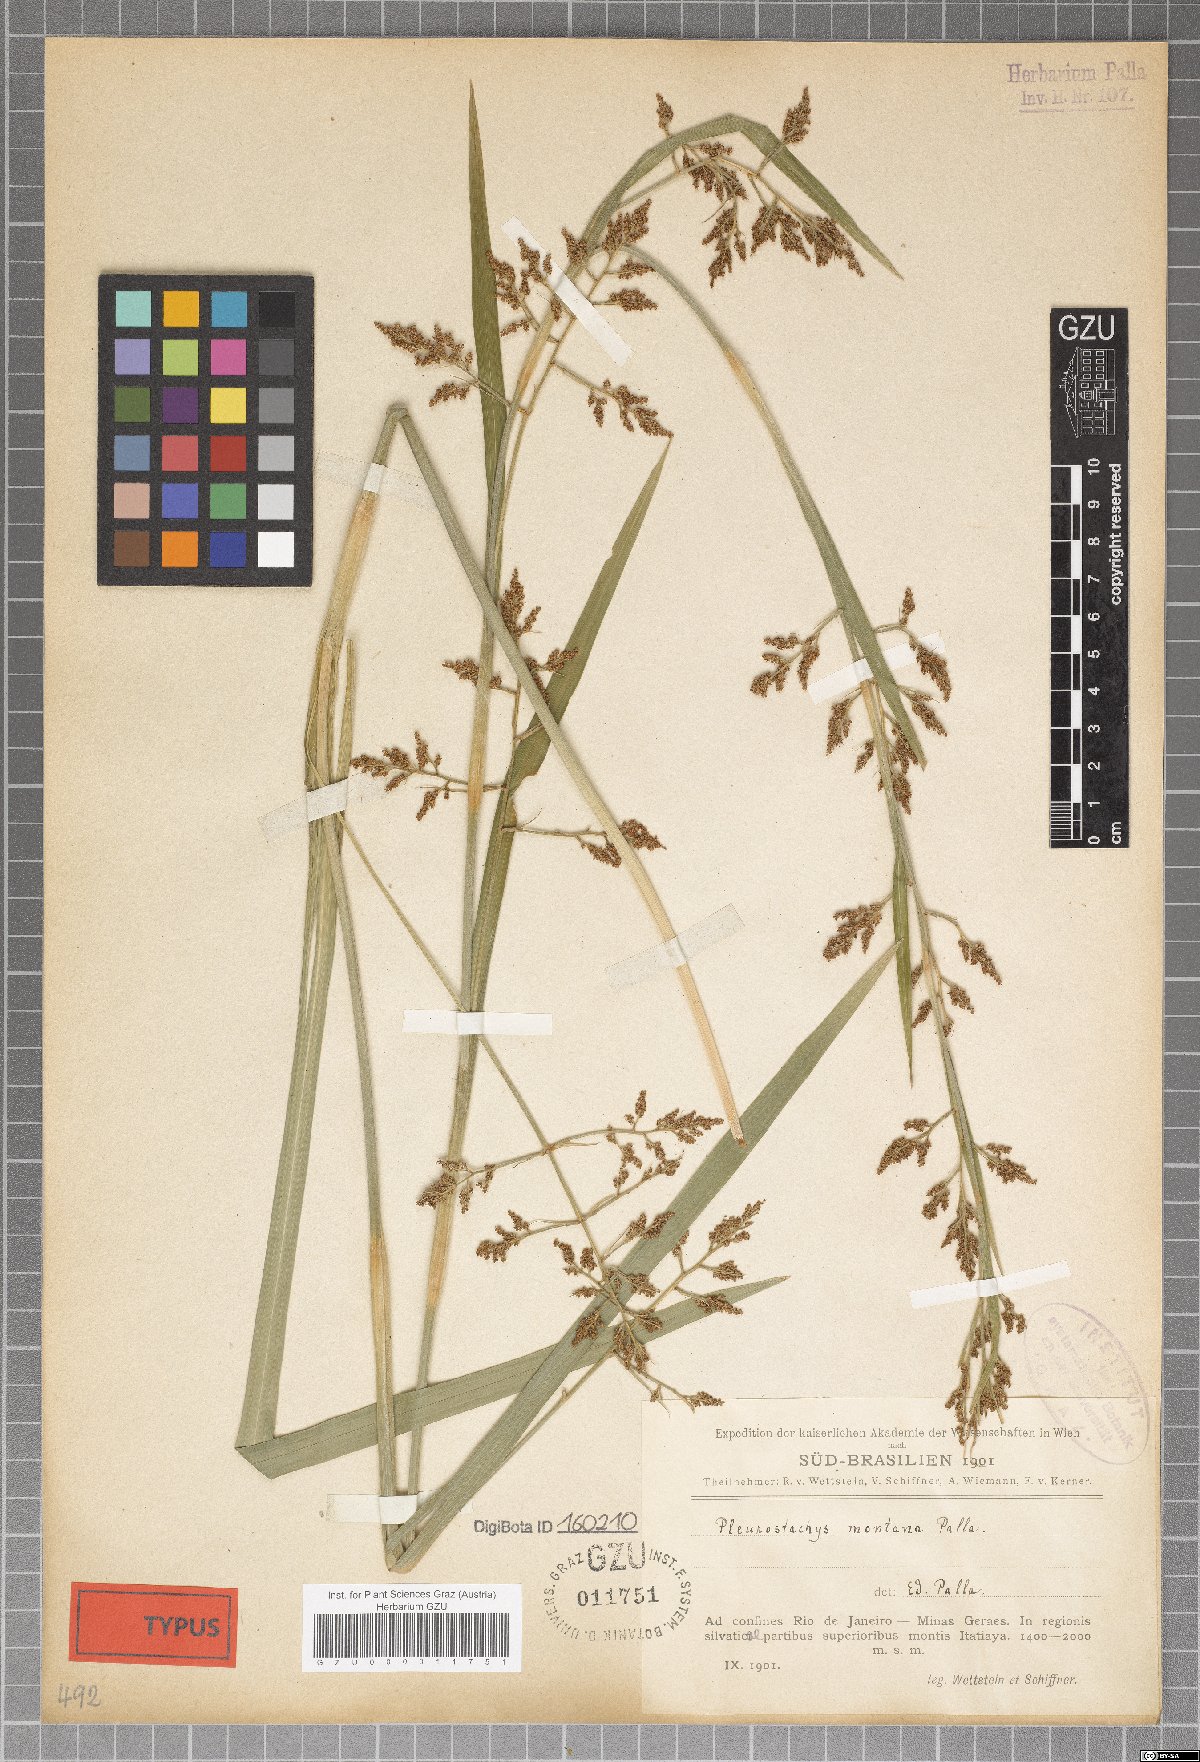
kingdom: Plantae
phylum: Tracheophyta
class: Liliopsida
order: Poales
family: Cyperaceae
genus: Rhynchospora
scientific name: Rhynchospora orbignyana
